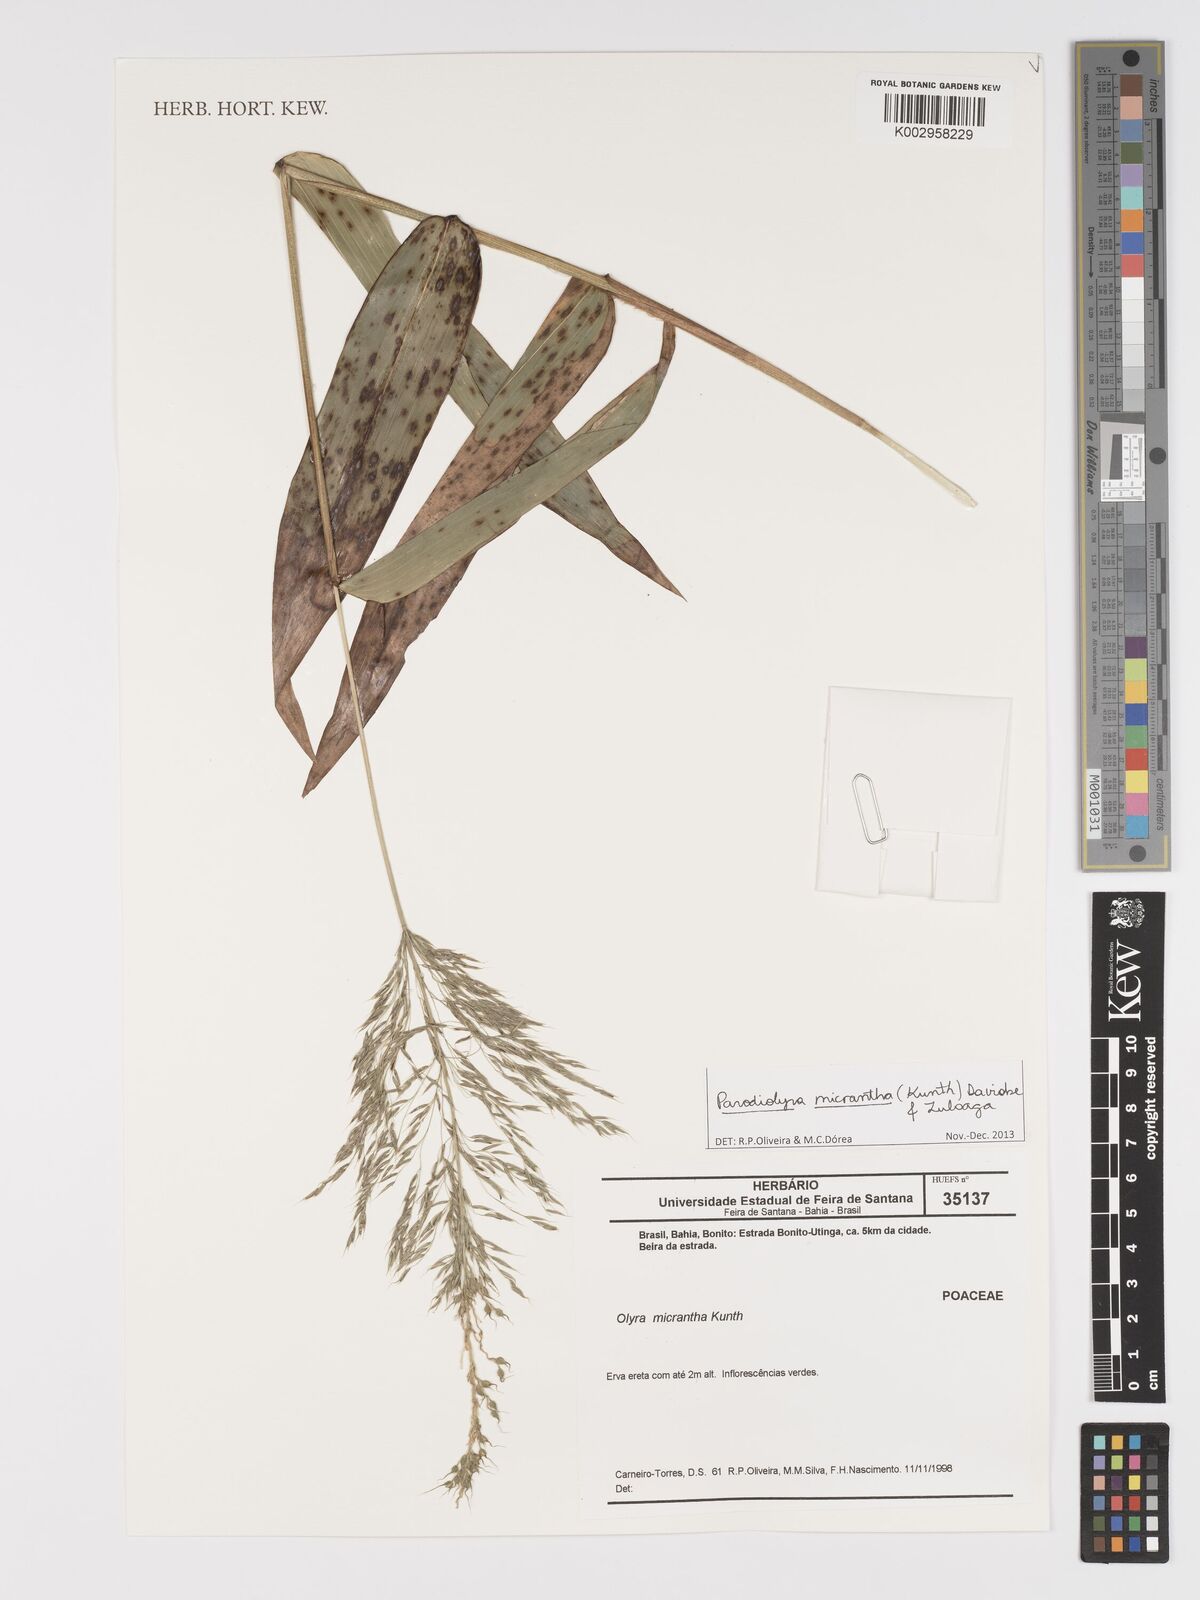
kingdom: Plantae
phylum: Tracheophyta
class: Liliopsida
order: Poales
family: Poaceae
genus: Taquara
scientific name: Taquara micrantha
